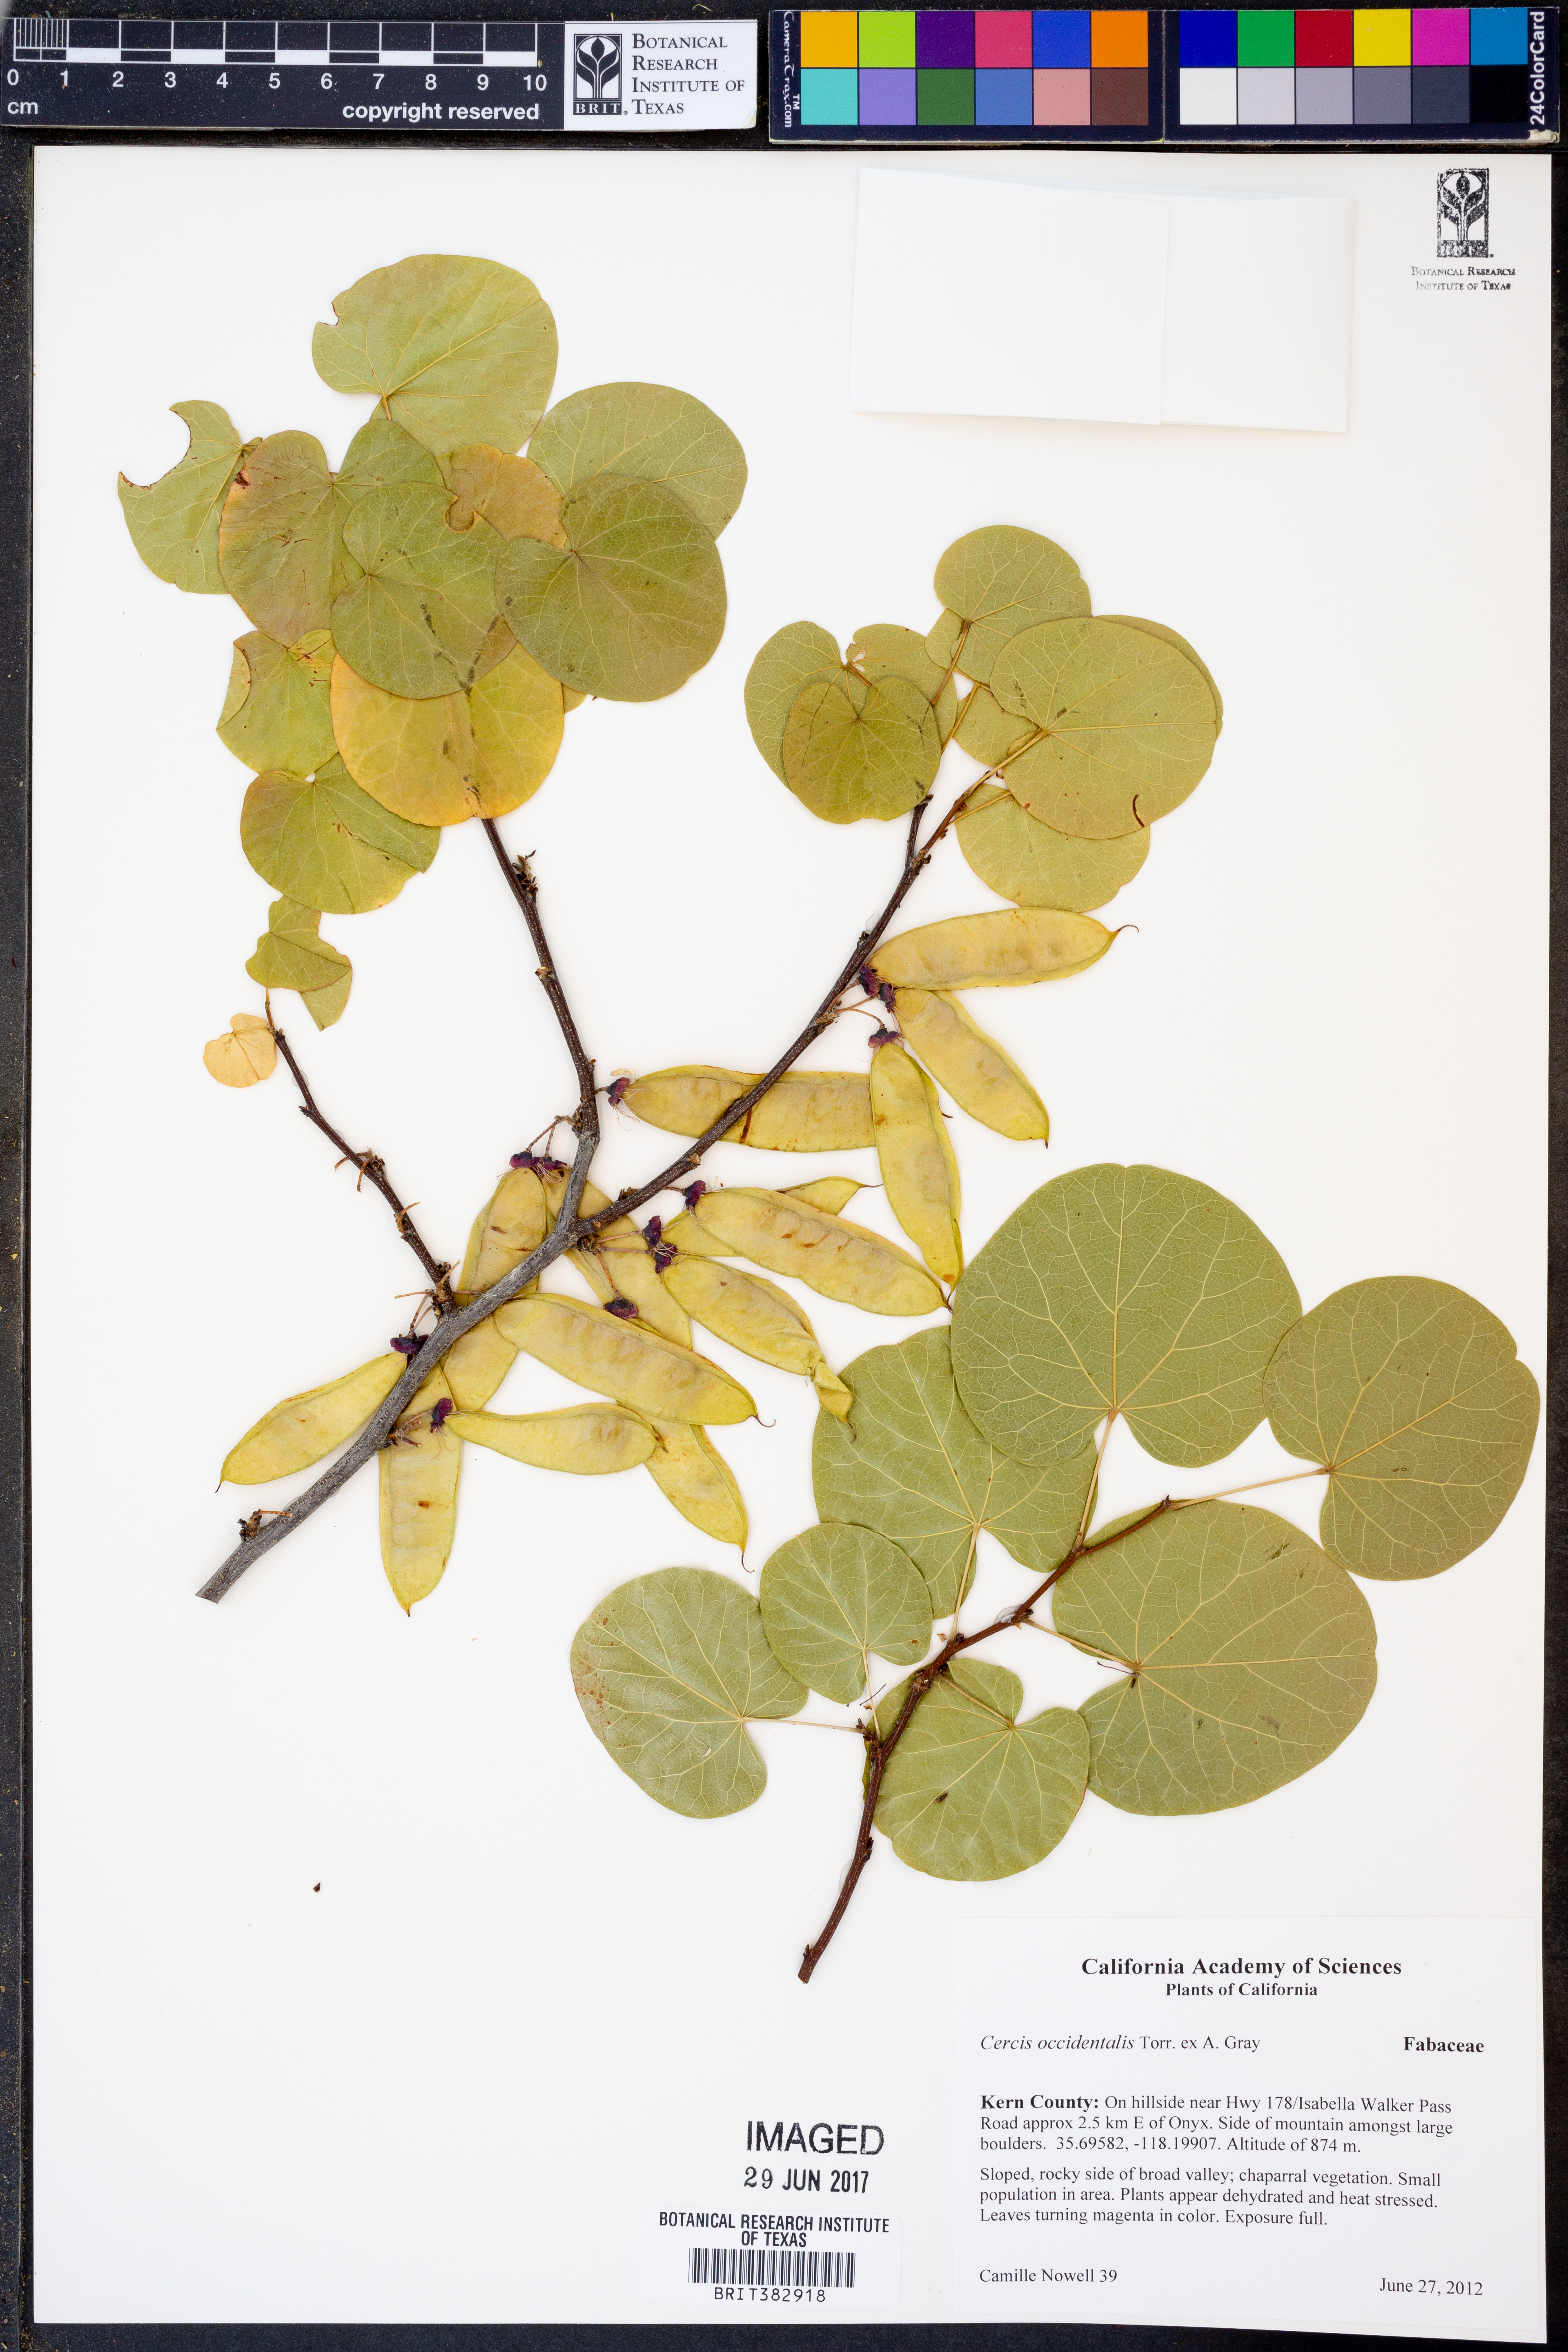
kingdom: Plantae
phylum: Tracheophyta
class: Magnoliopsida
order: Fabales
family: Fabaceae
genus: Cercis
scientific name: Cercis occidentalis
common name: California redbud
